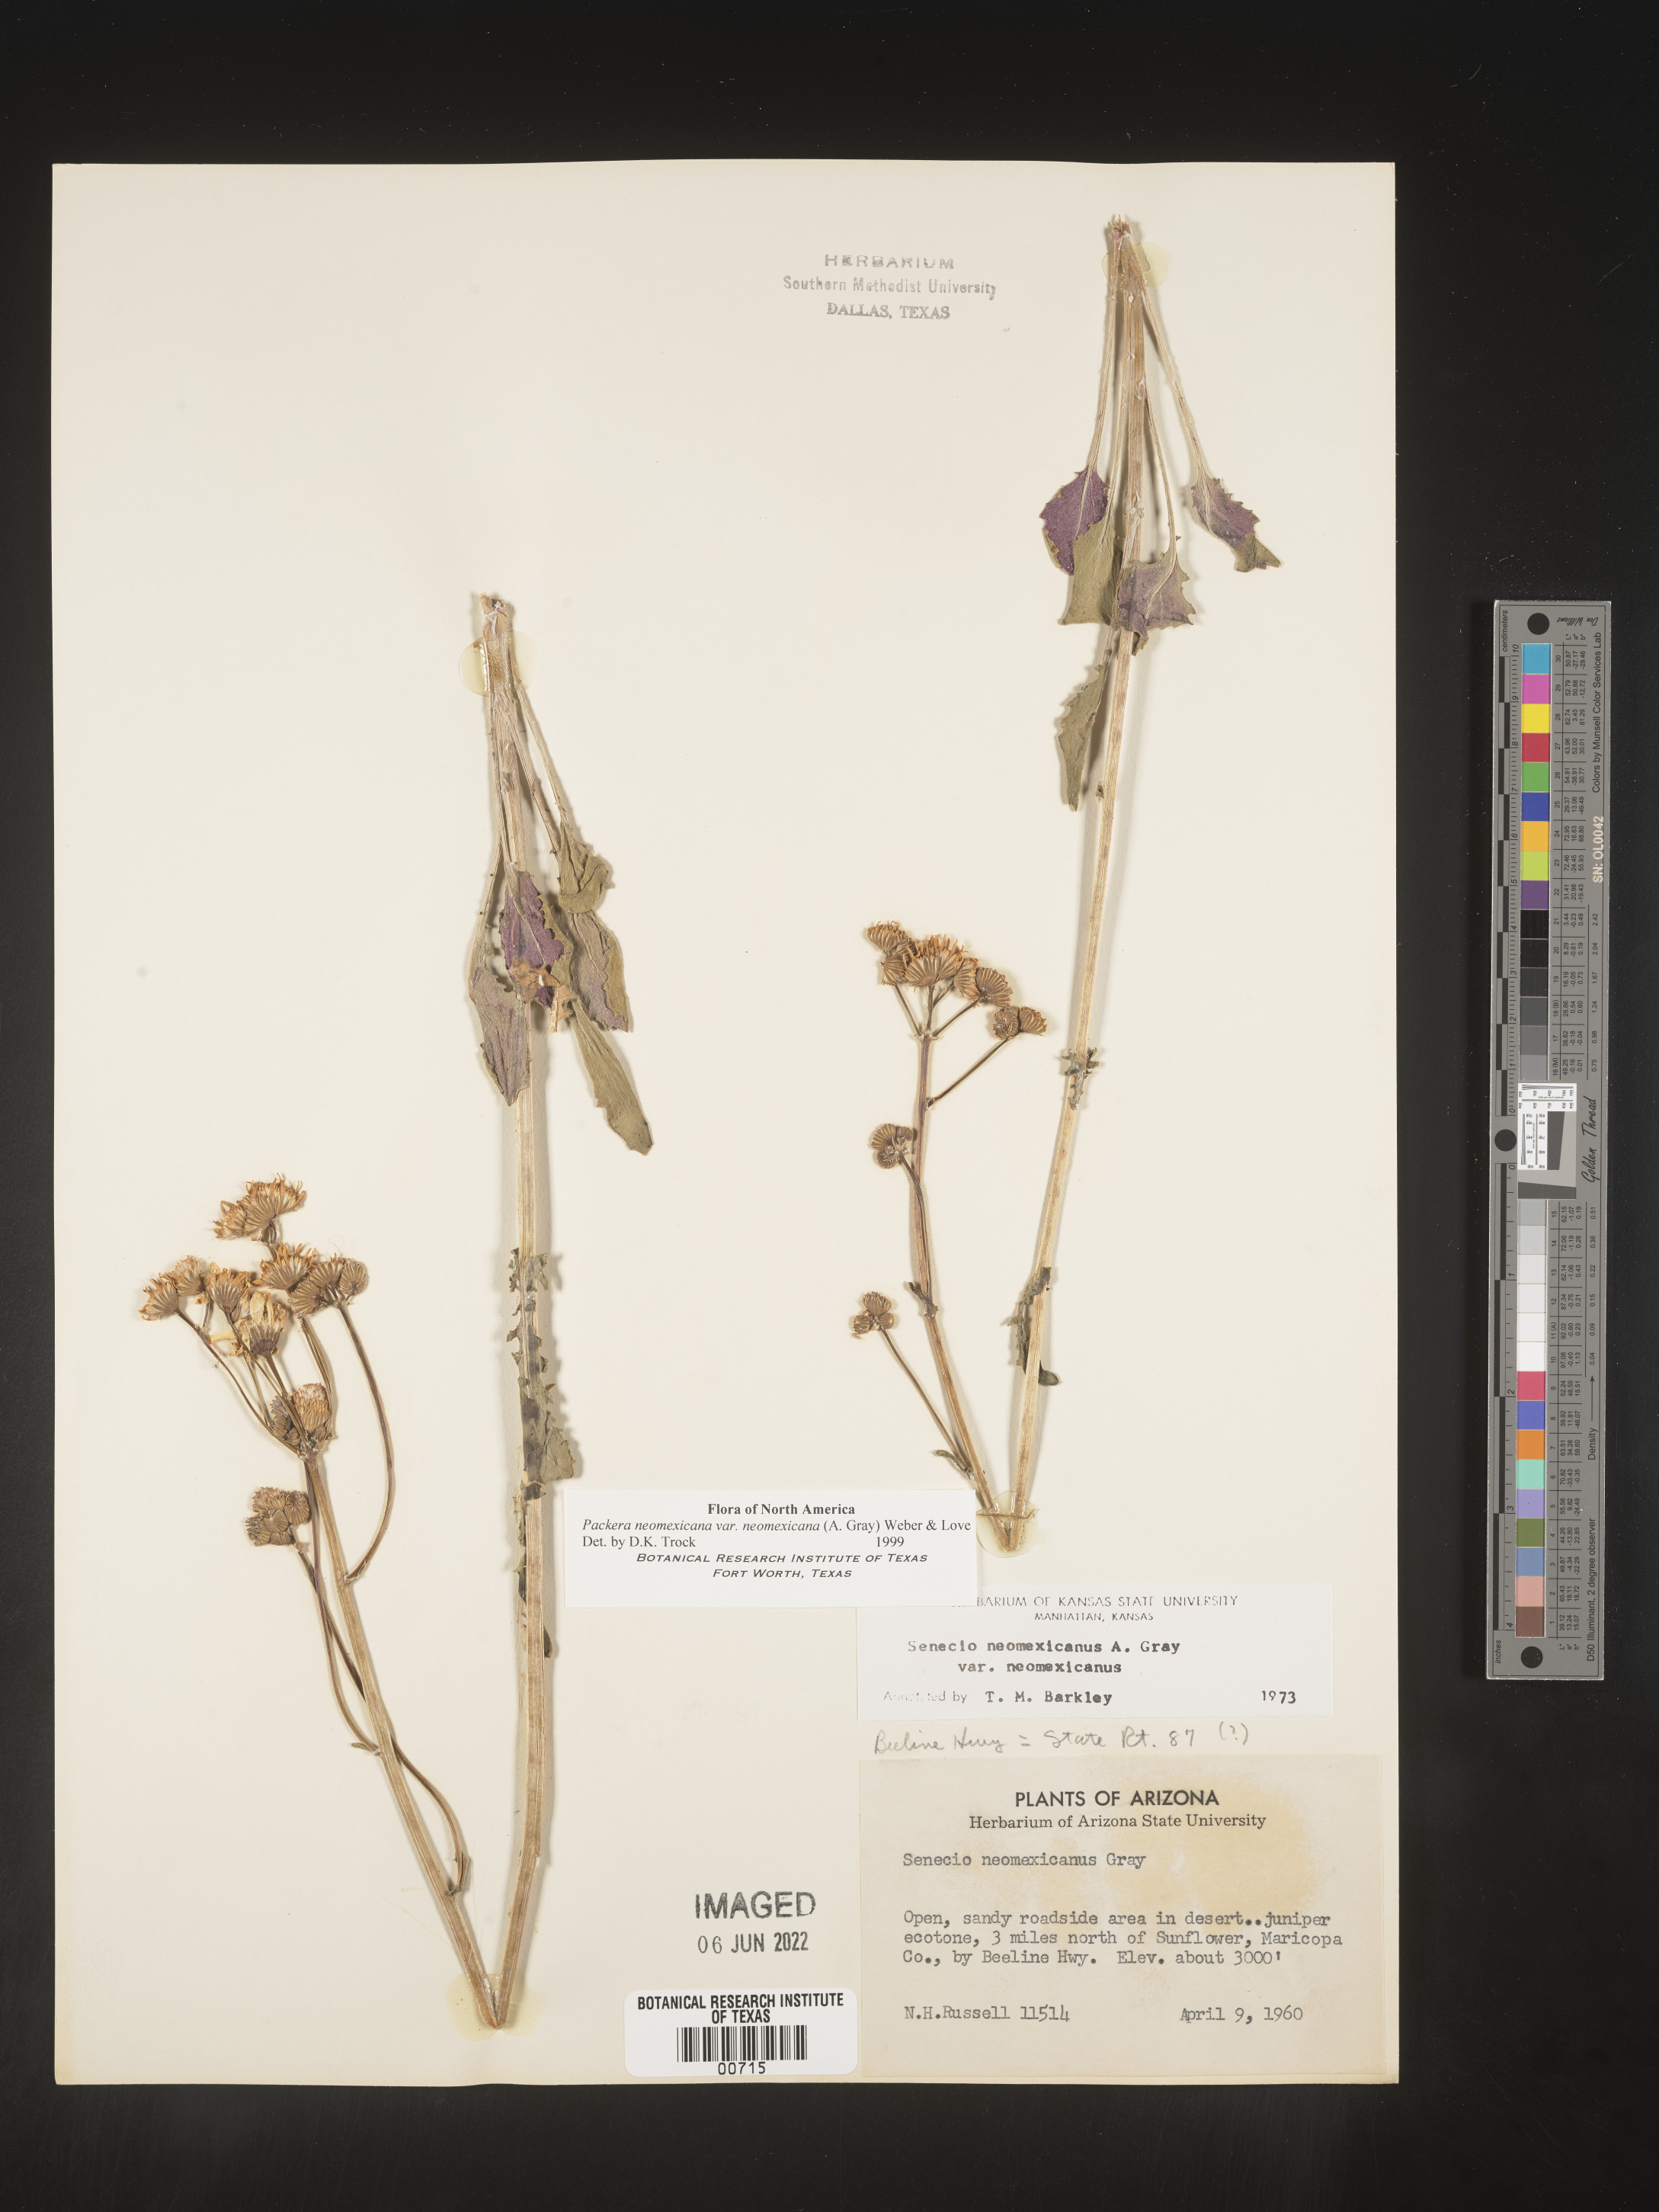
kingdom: Plantae
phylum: Tracheophyta
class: Magnoliopsida
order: Asterales
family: Asteraceae
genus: Packera
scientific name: Packera neomexicana
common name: New mexico butterweed
